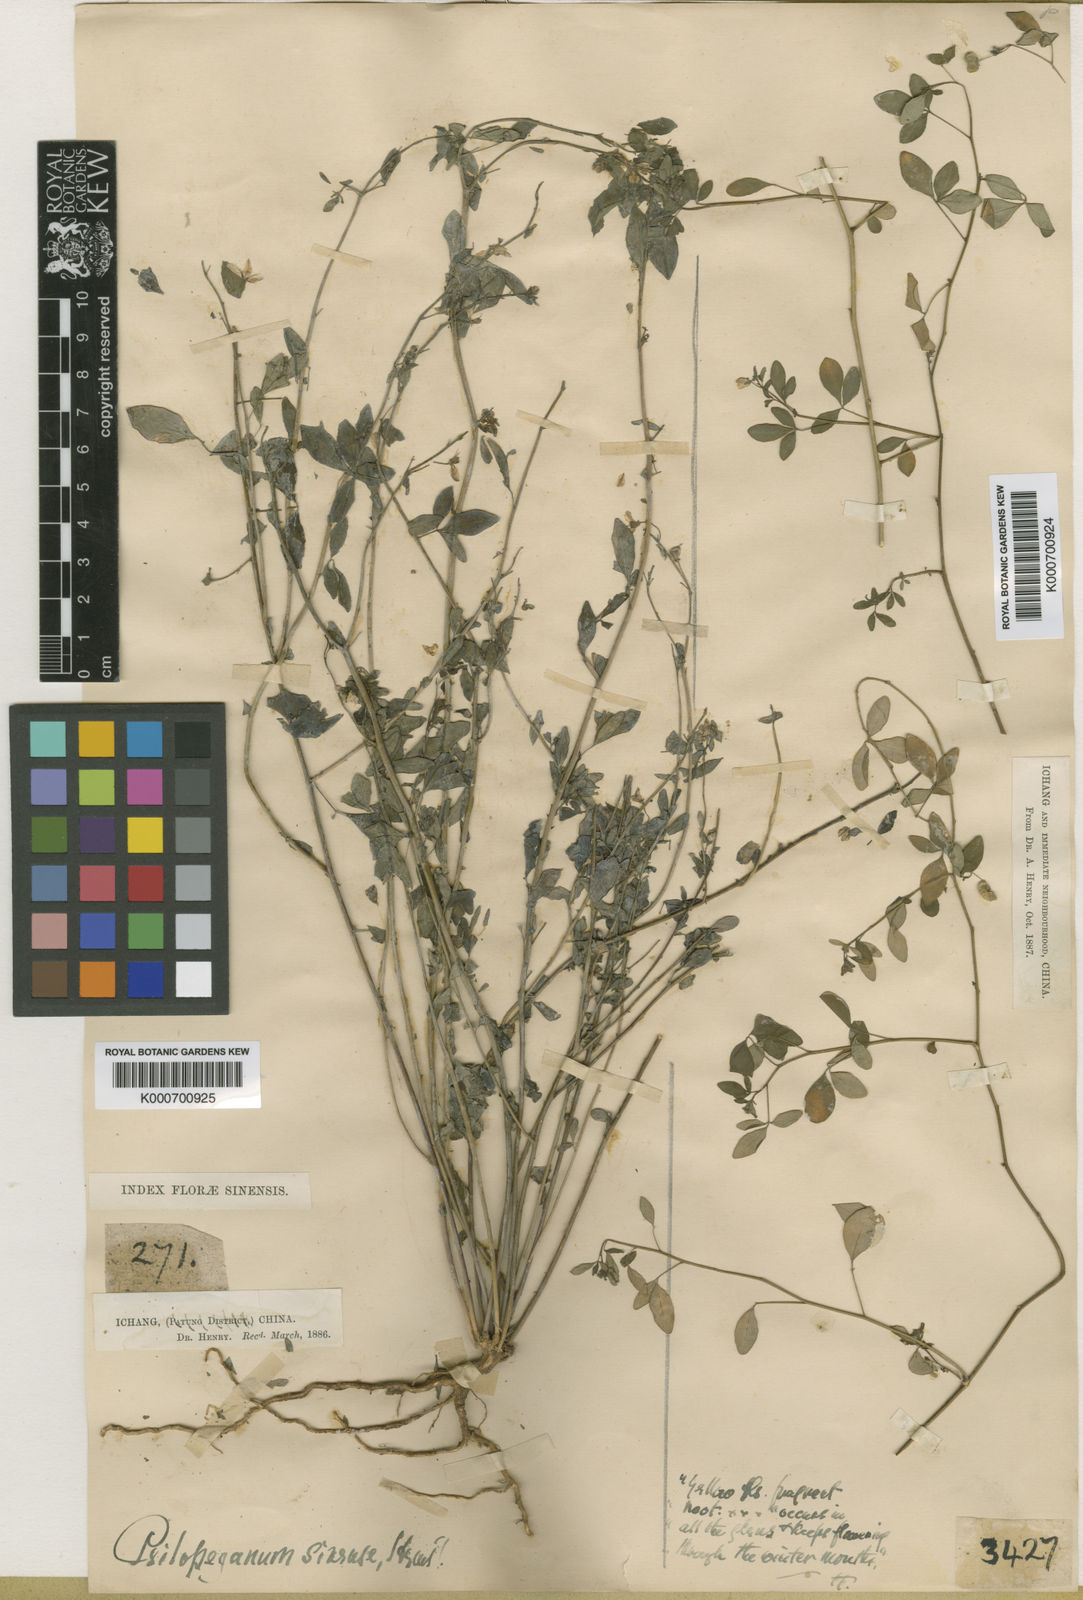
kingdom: Plantae
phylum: Tracheophyta
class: Magnoliopsida
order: Sapindales
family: Rutaceae
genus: Psilopeganum
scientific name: Psilopeganum sinense
